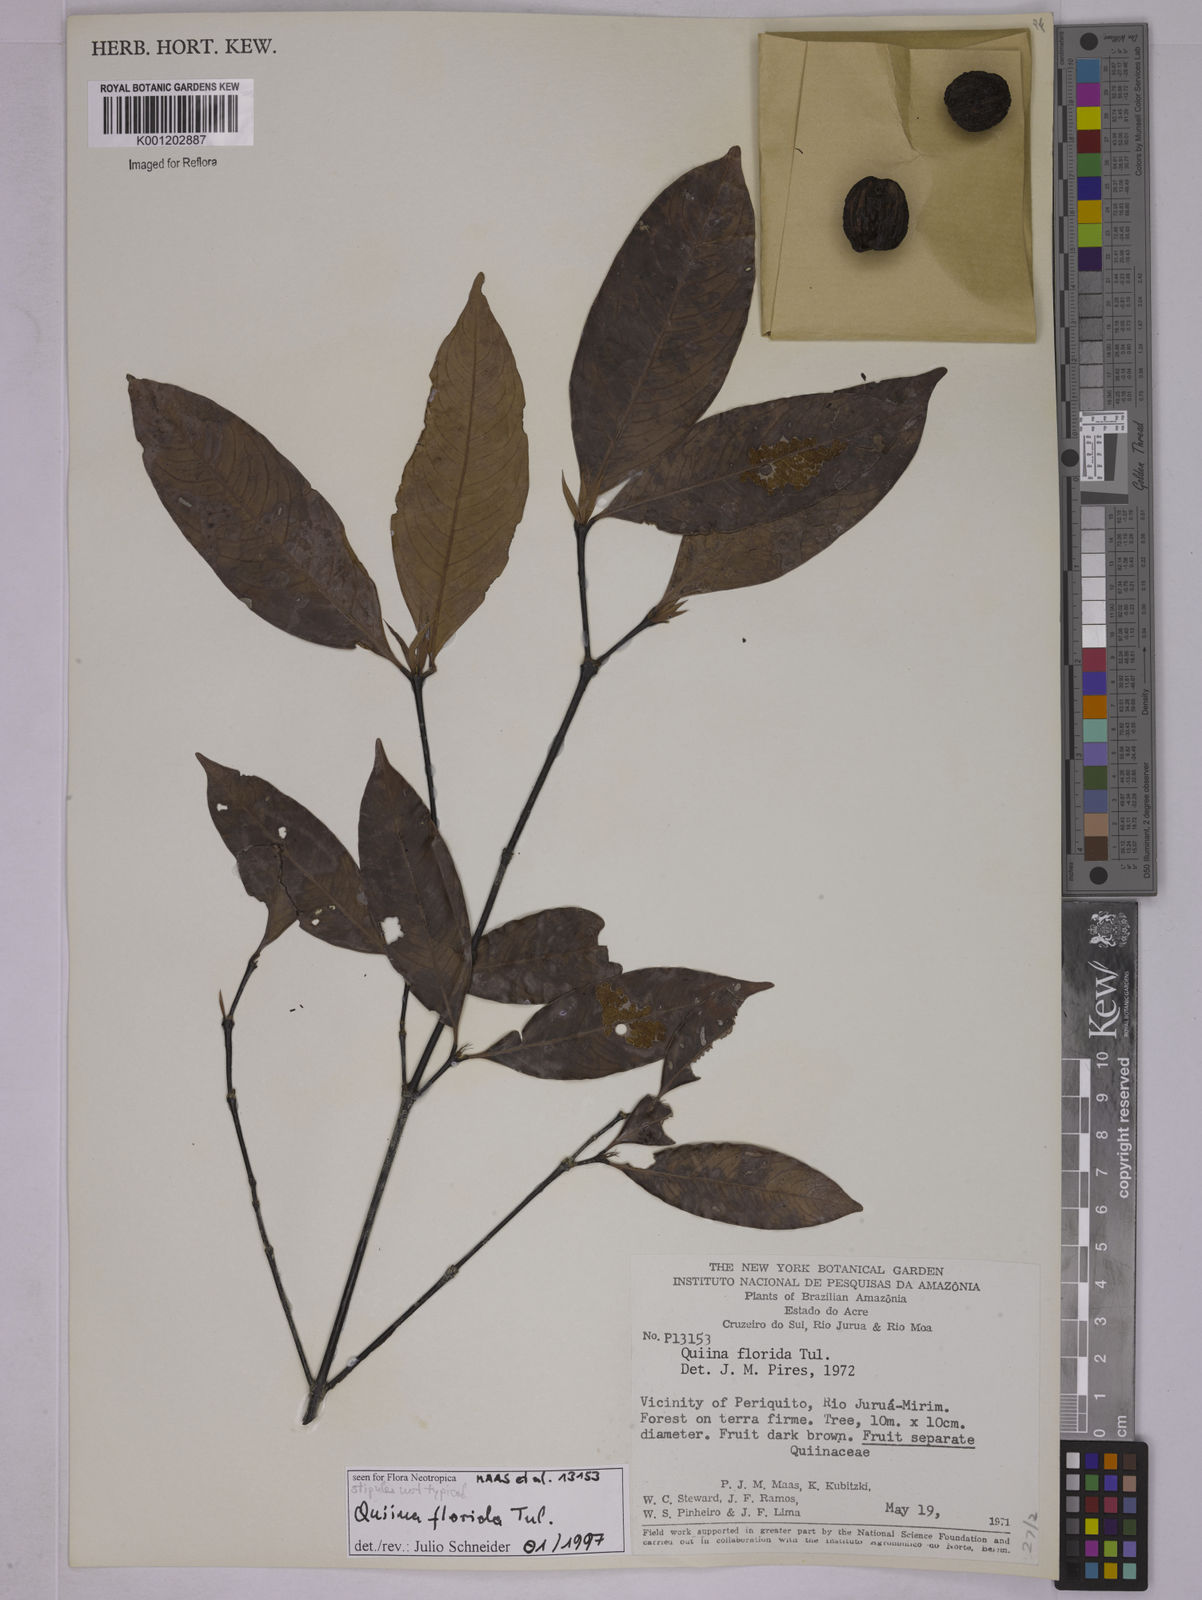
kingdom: Plantae
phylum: Tracheophyta
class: Magnoliopsida
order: Malpighiales
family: Quiinaceae
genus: Quiina
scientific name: Quiina florida
